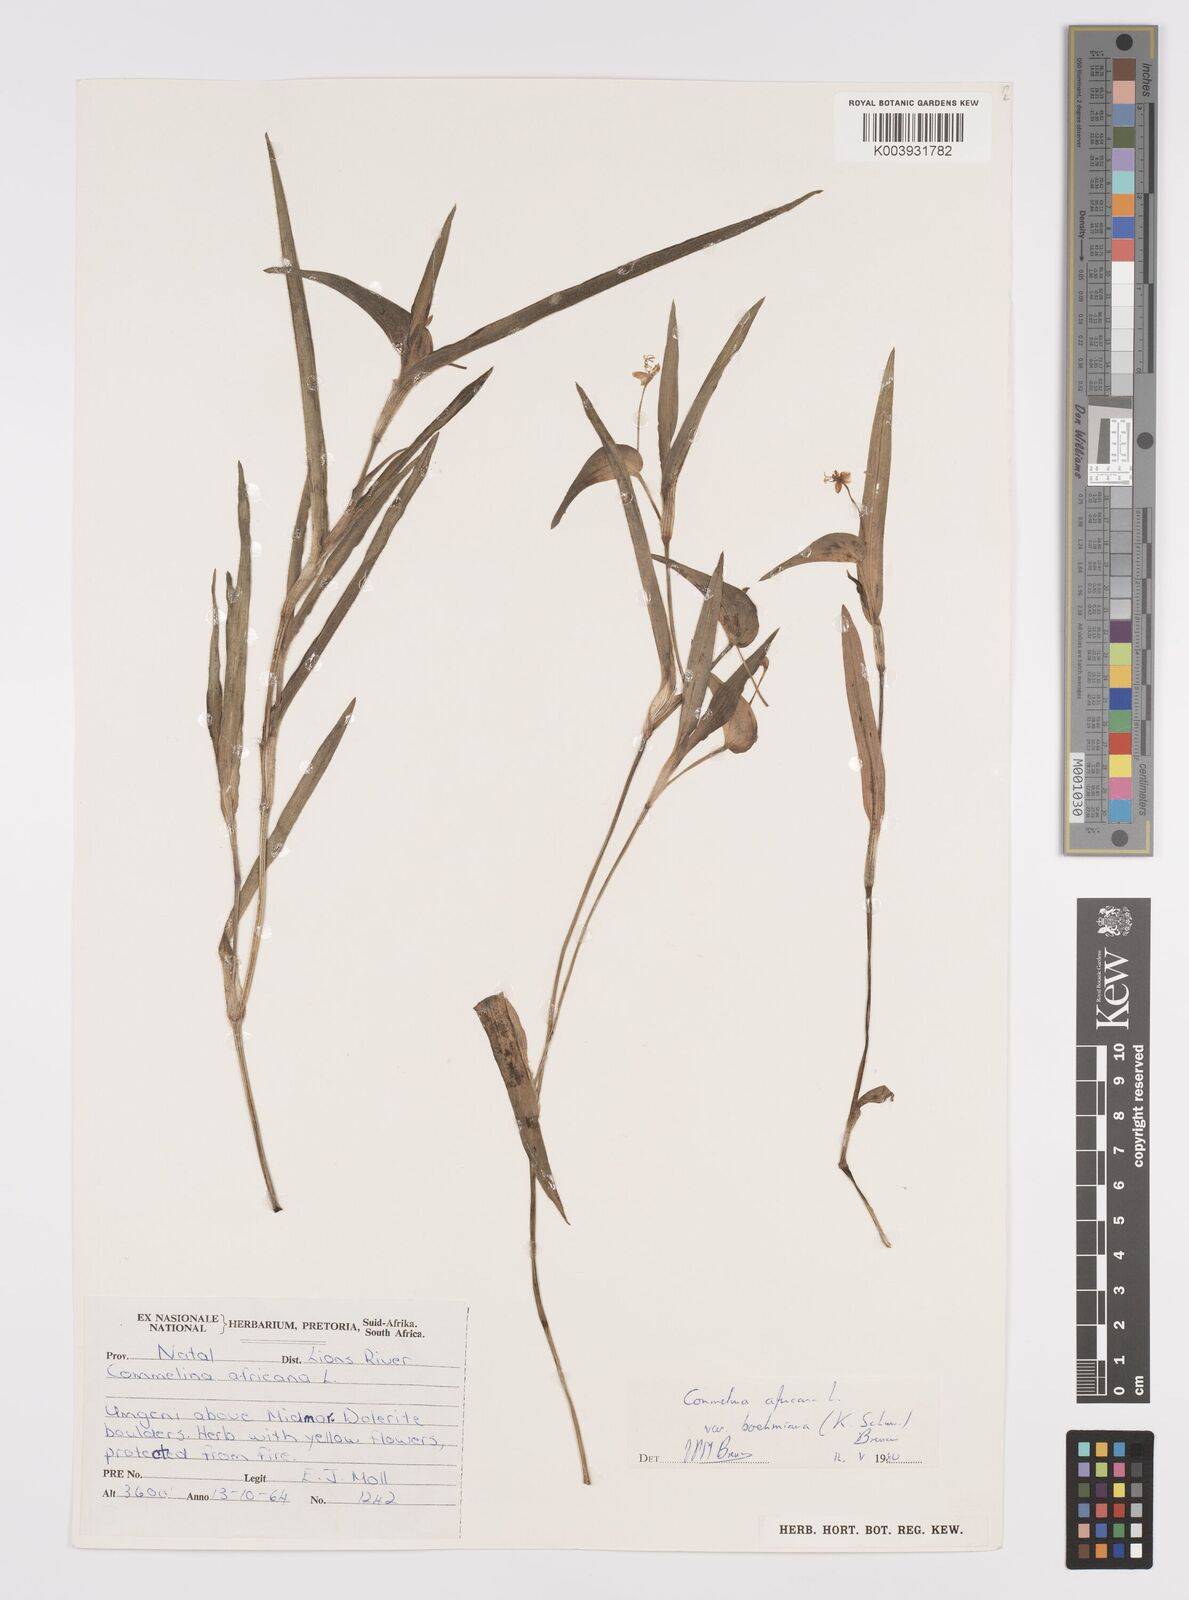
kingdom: Plantae
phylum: Tracheophyta
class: Liliopsida
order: Commelinales
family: Commelinaceae
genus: Commelina
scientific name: Commelina africana
